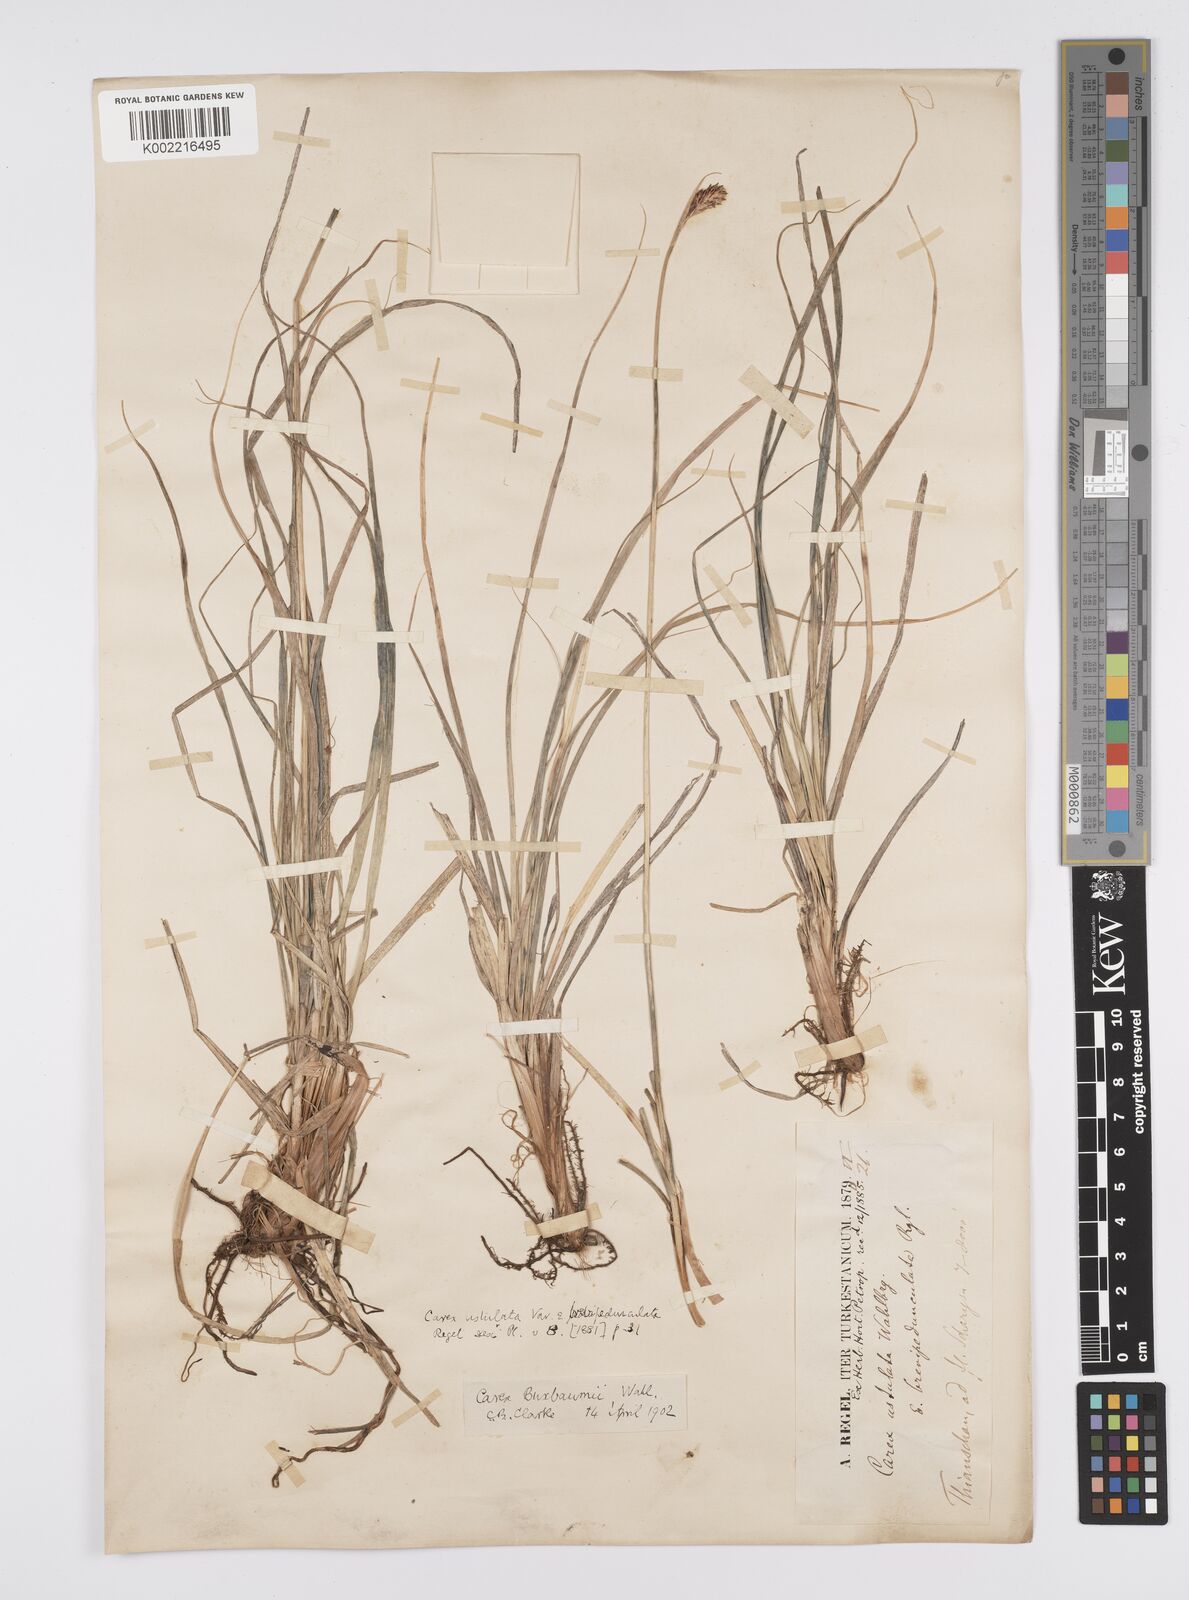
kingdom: Plantae
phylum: Tracheophyta
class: Liliopsida
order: Poales
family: Cyperaceae
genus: Carex
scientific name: Carex buxbaumii
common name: Club sedge
